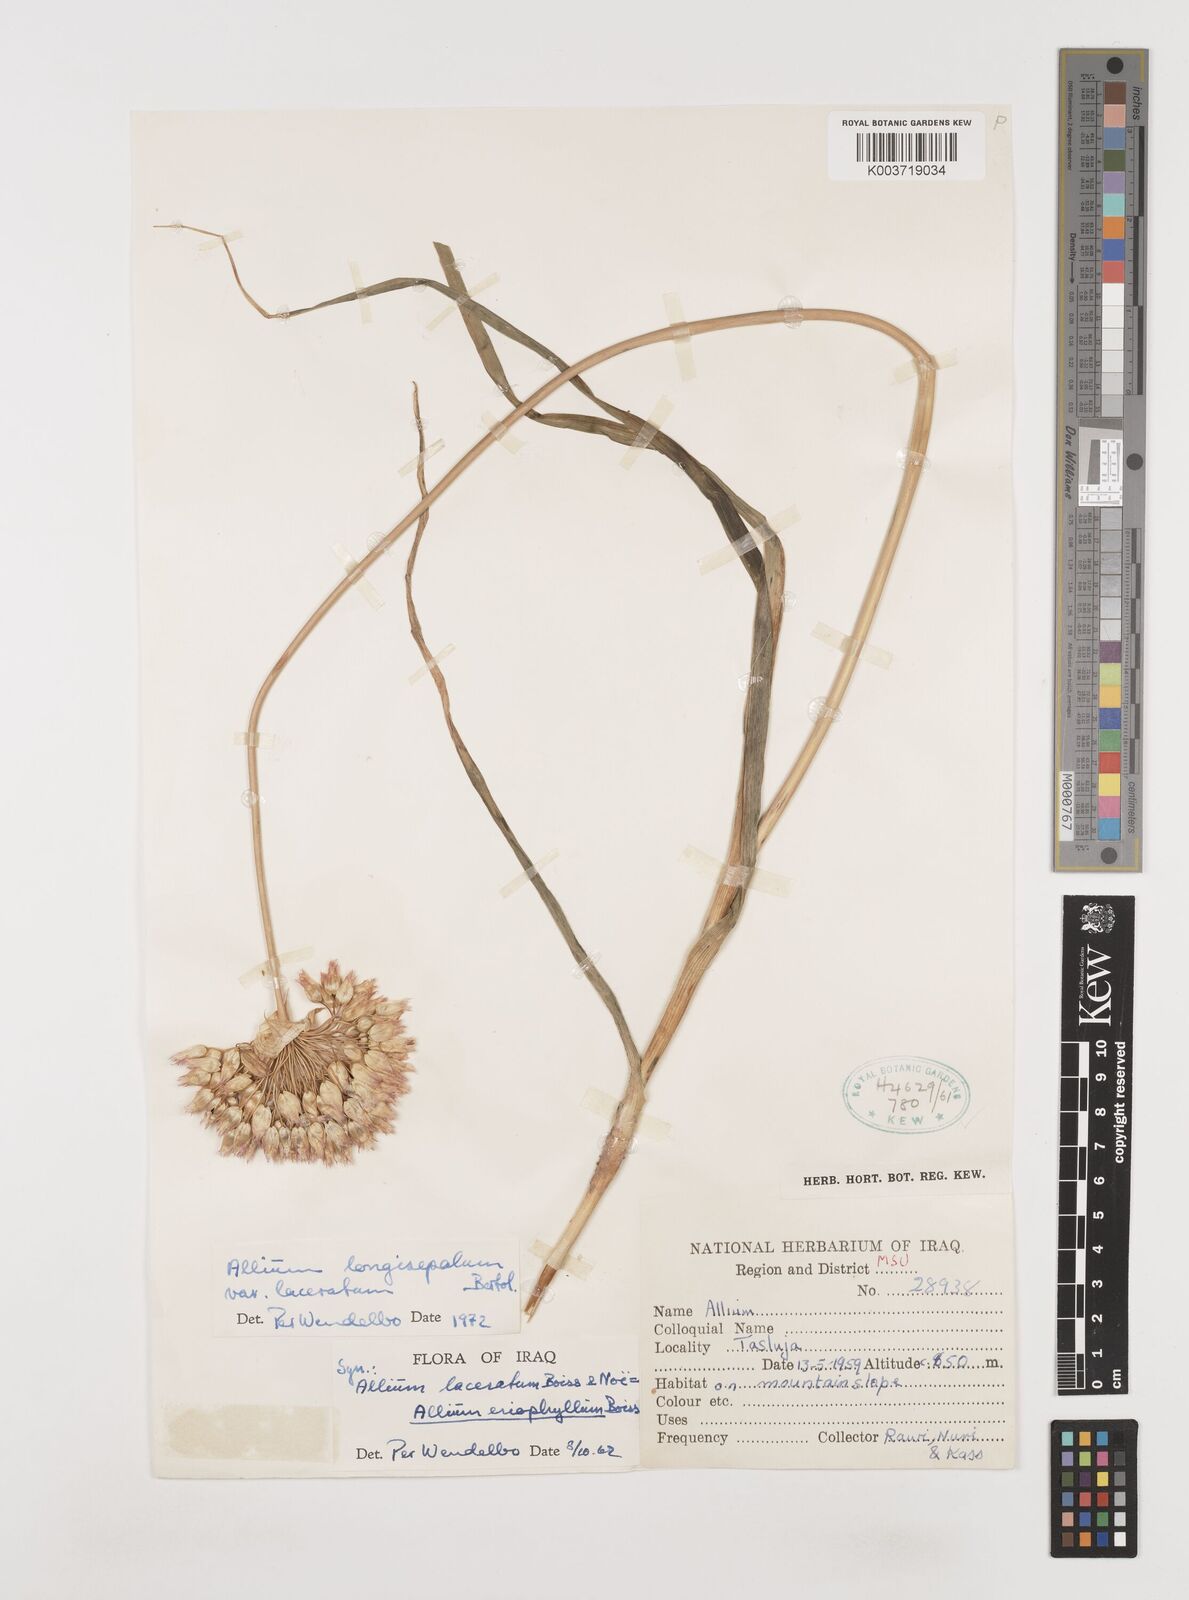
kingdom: Plantae
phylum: Tracheophyta
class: Liliopsida
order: Asparagales
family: Amaryllidaceae
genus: Allium
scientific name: Allium longisepalum
